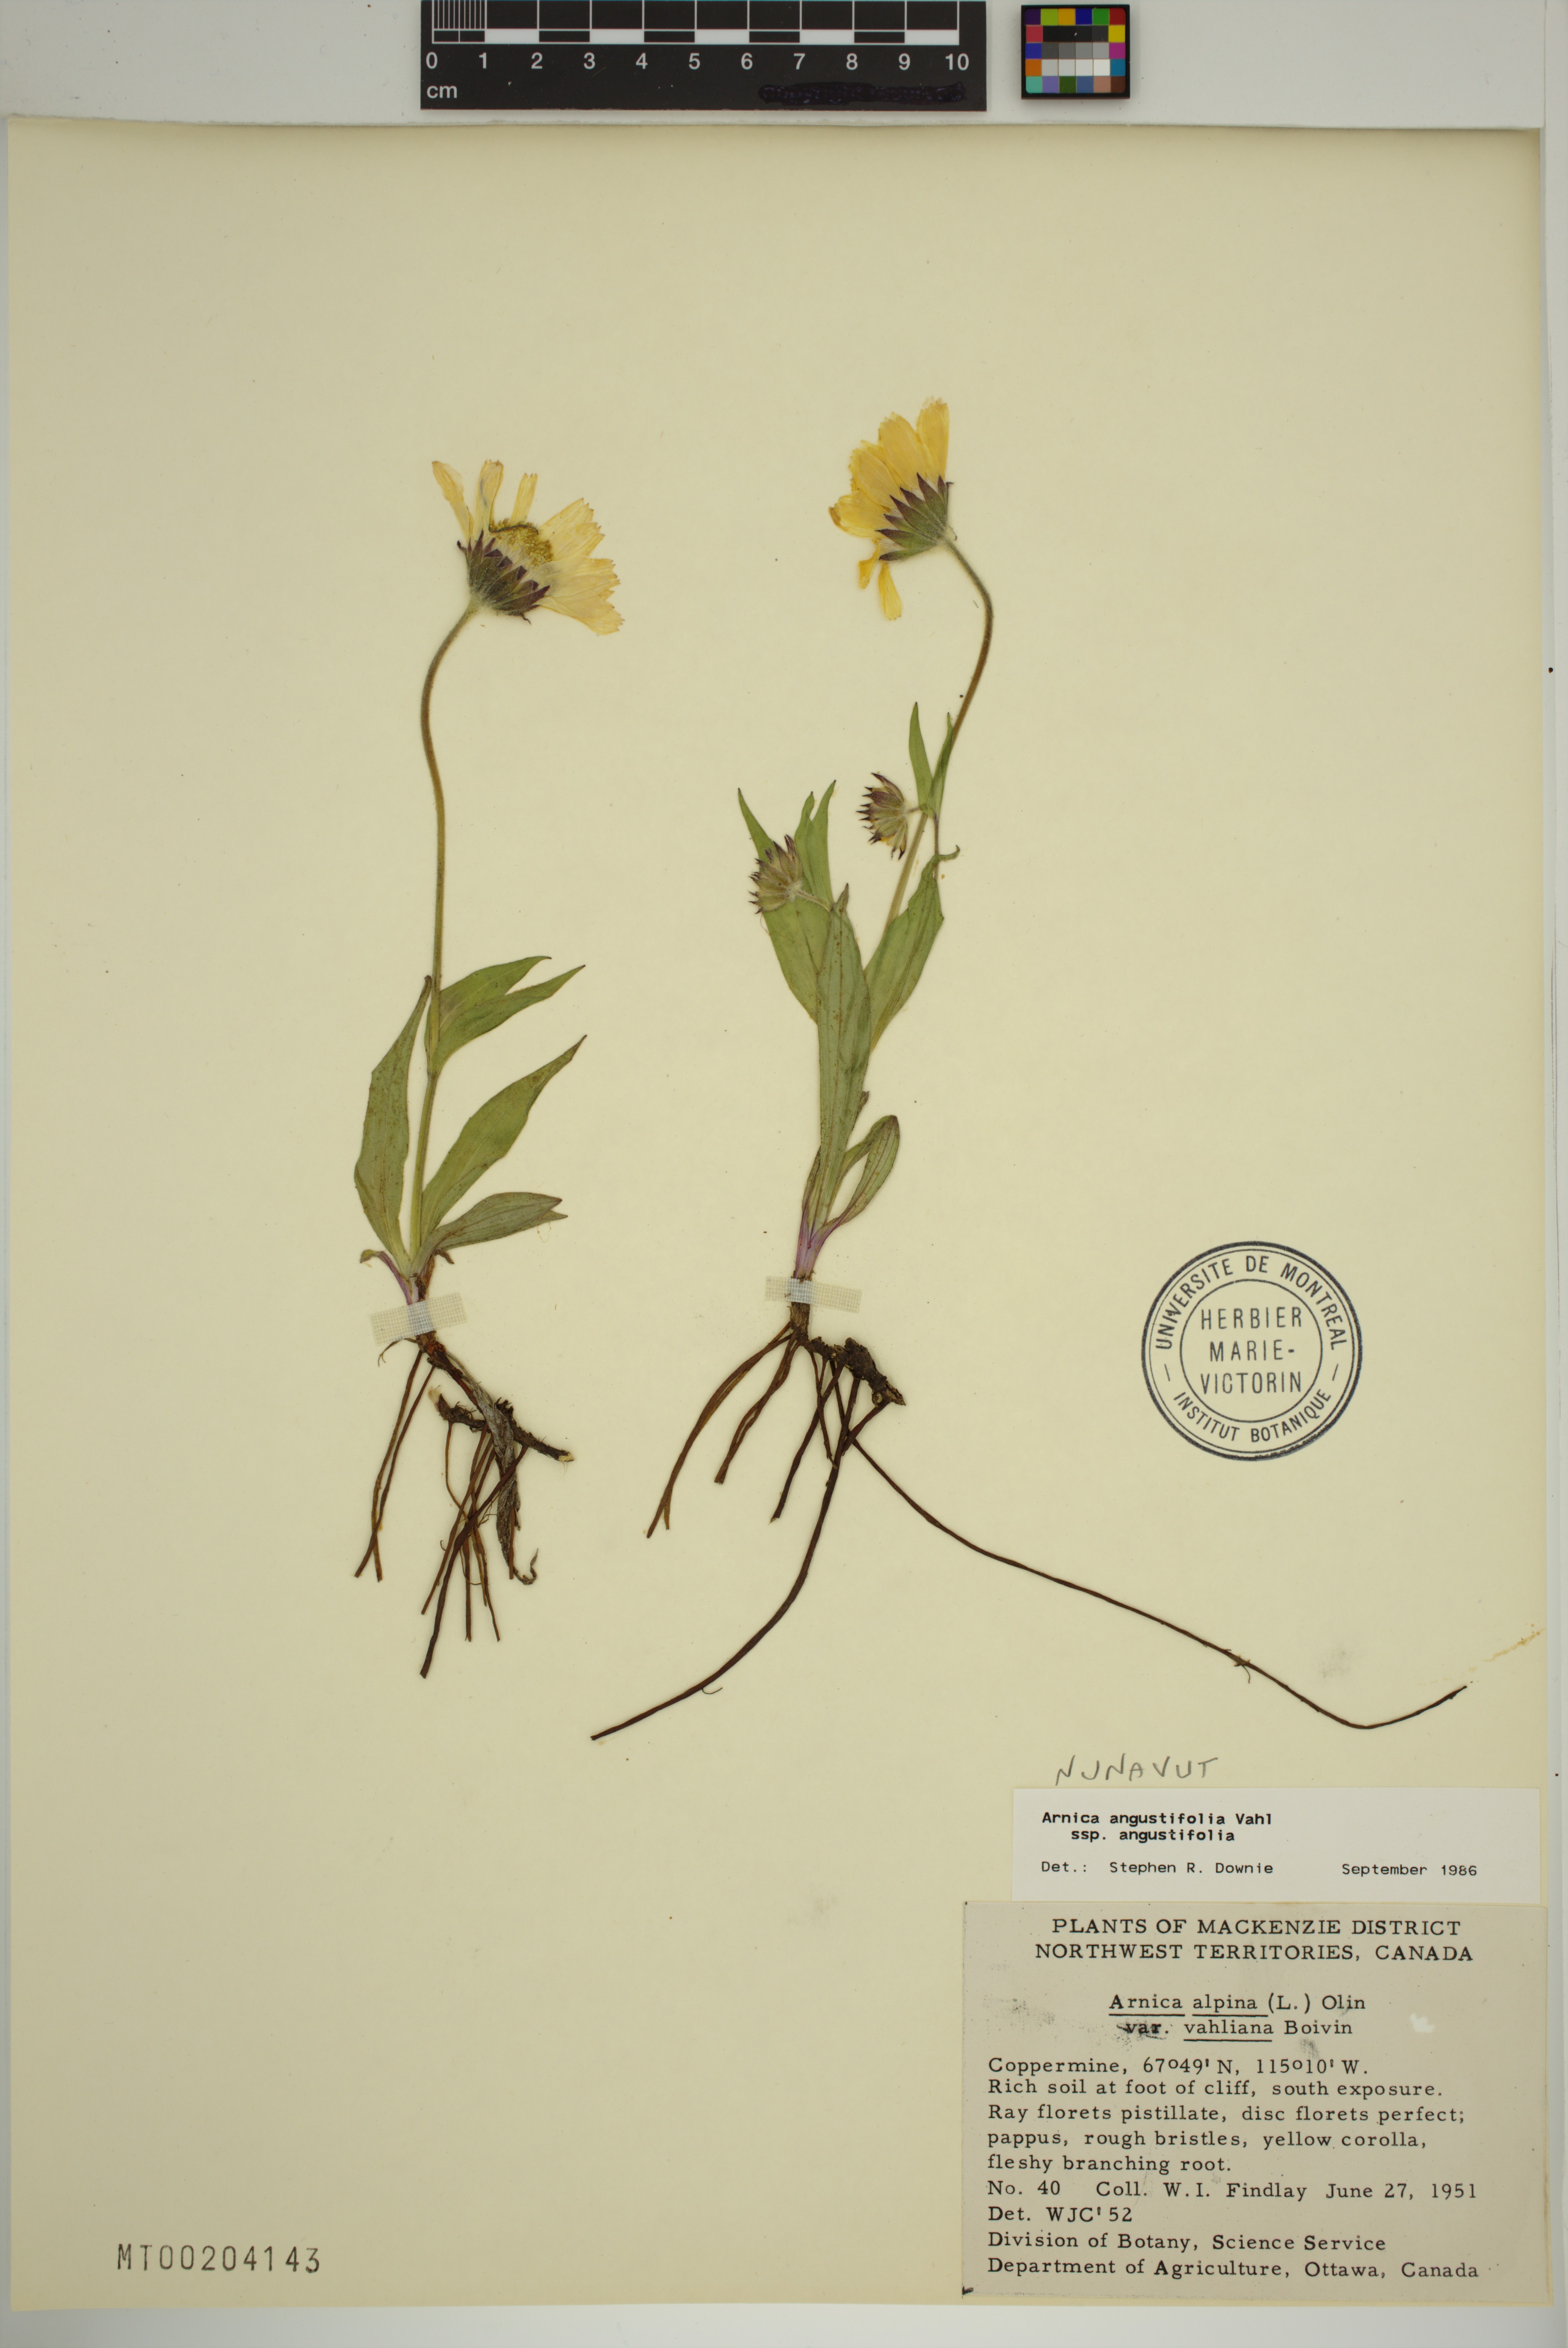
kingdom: Plantae
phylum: Tracheophyta
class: Magnoliopsida
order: Asterales
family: Asteraceae
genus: Arnica
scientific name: Arnica angustifolia
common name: Arctic arnica
